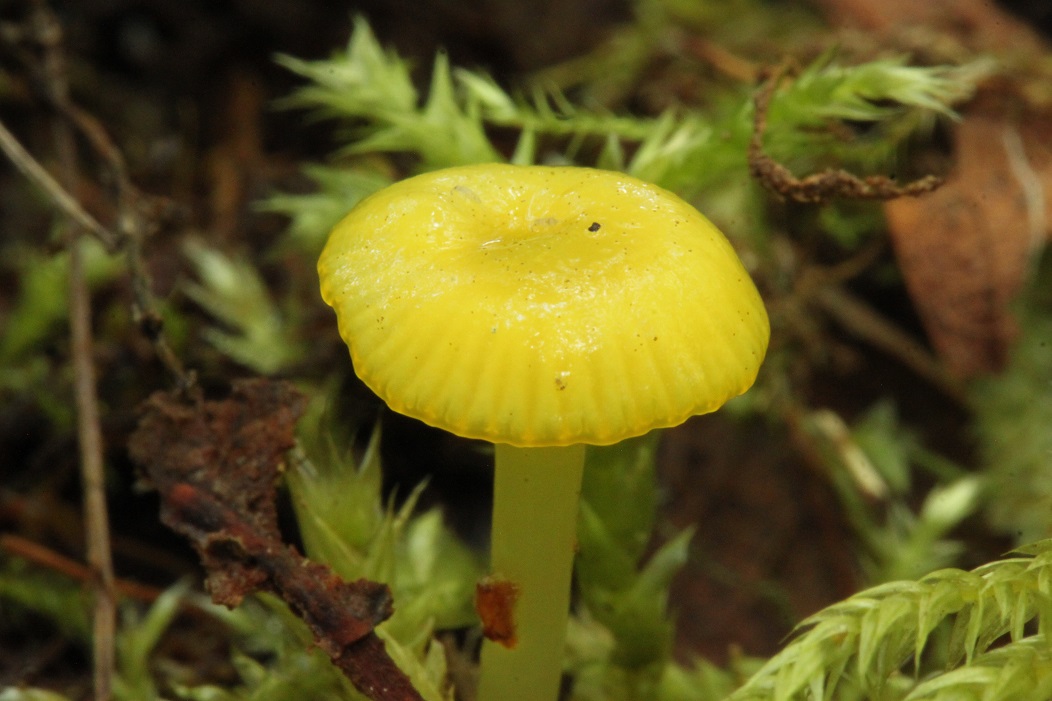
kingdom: Fungi
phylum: Basidiomycota
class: Agaricomycetes
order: Agaricales
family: Hygrophoraceae
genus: Gloioxanthomyces
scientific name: Gloioxanthomyces vitellinus
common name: kromgul vokshat
